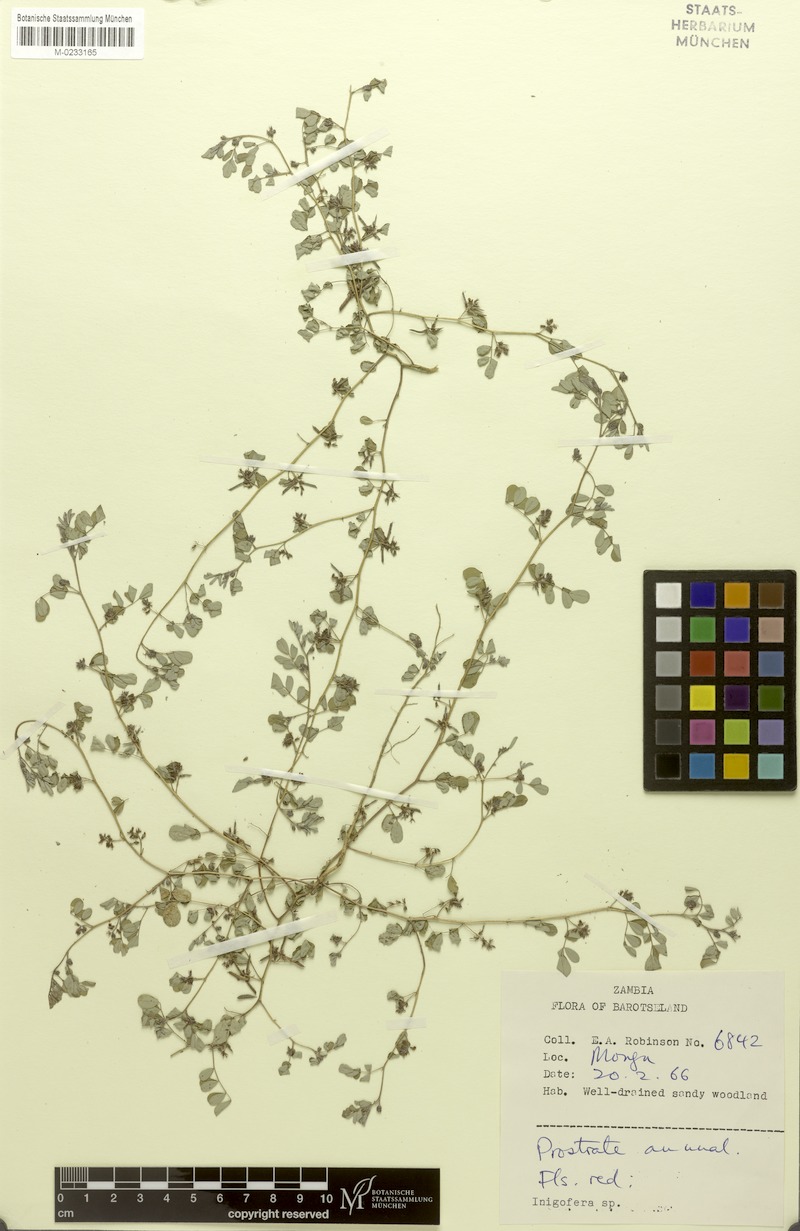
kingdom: Plantae
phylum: Tracheophyta
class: Magnoliopsida
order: Fabales
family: Fabaceae
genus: Indigofera
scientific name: Indigofera breviviscosa
